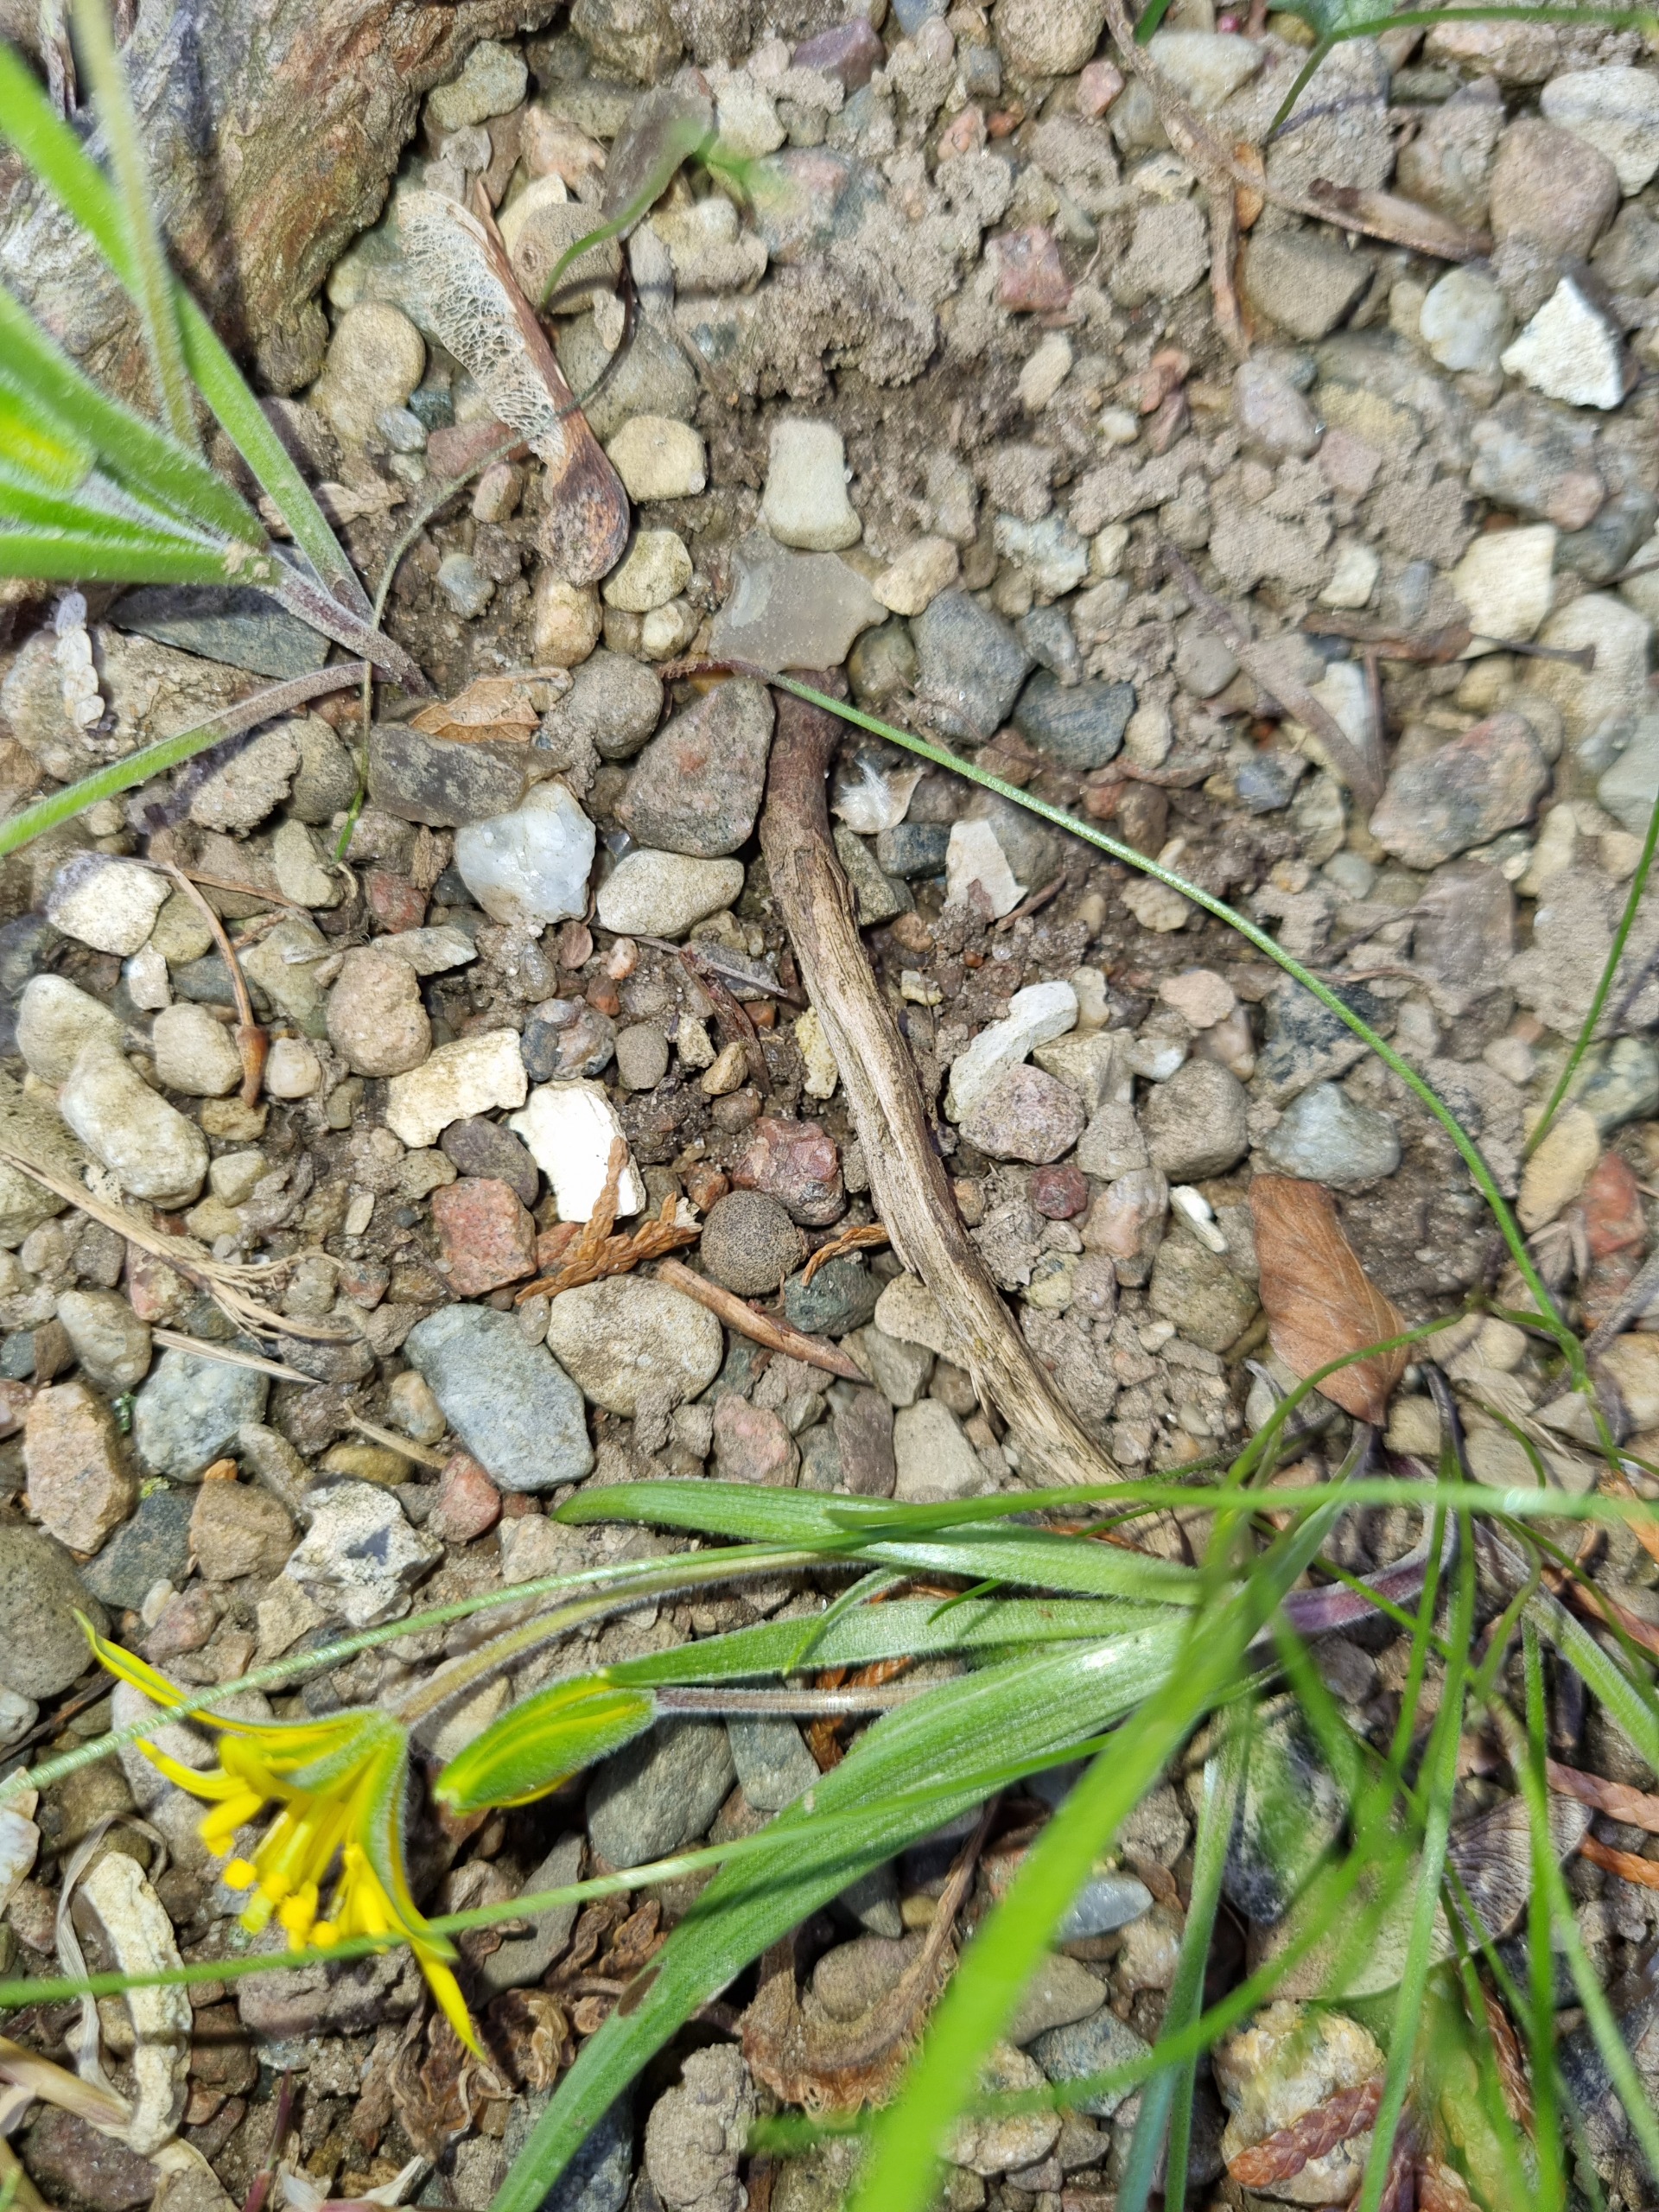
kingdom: Plantae
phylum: Tracheophyta
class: Liliopsida
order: Liliales
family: Liliaceae
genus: Gagea
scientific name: Gagea villosa
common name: Ager-guldstjerne
